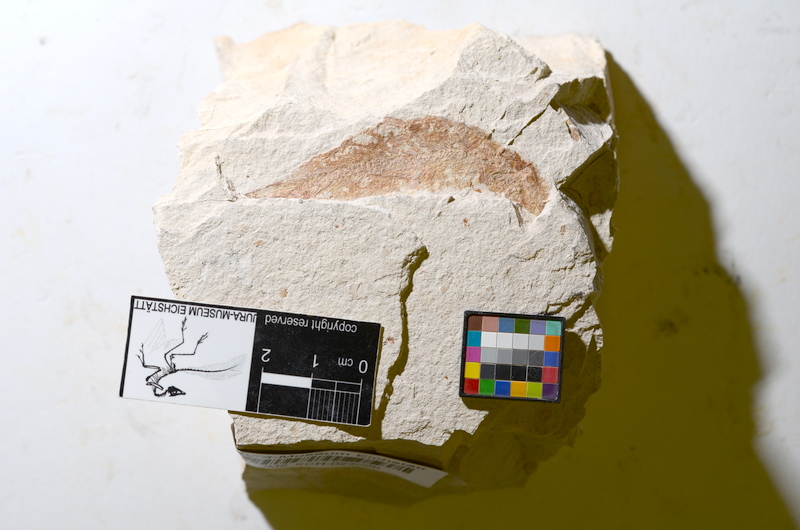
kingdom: Animalia
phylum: Chordata
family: Ascalaboidae
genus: Tharsis
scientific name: Tharsis dubius
